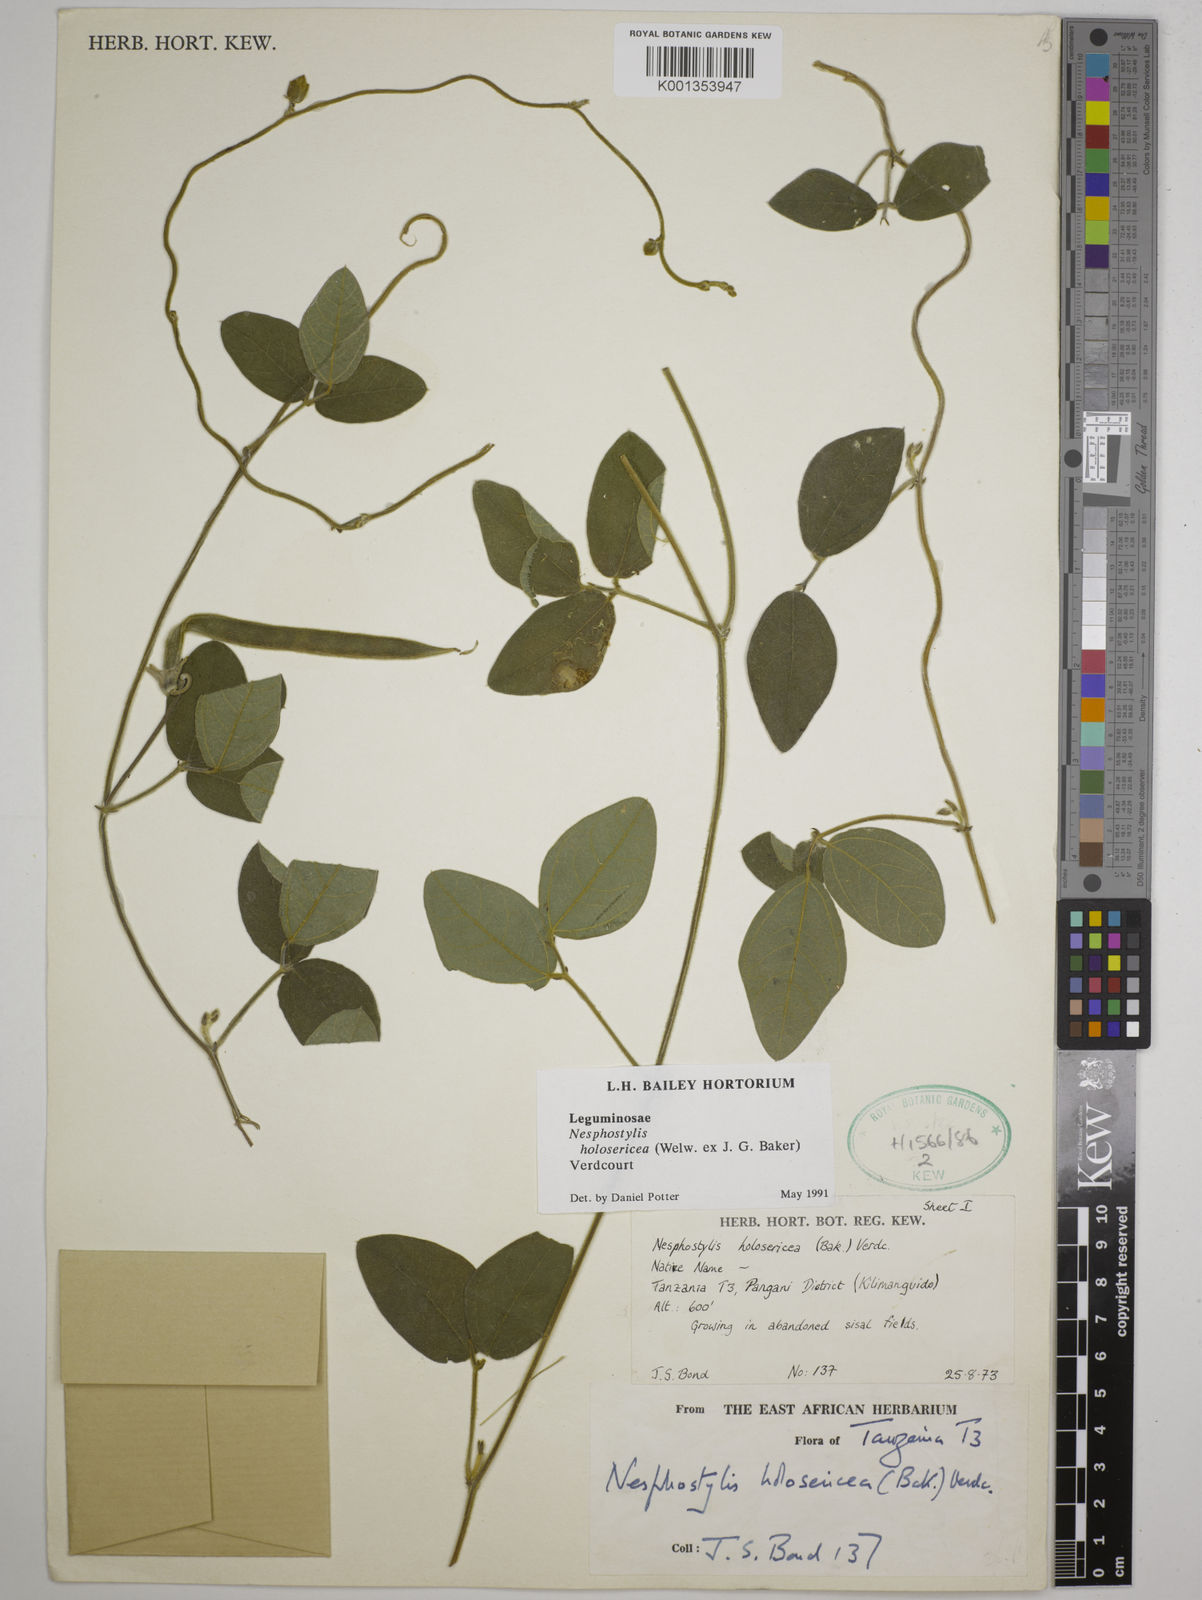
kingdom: Plantae
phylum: Tracheophyta
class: Magnoliopsida
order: Fabales
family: Fabaceae
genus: Nesphostylis
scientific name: Nesphostylis holosericea
